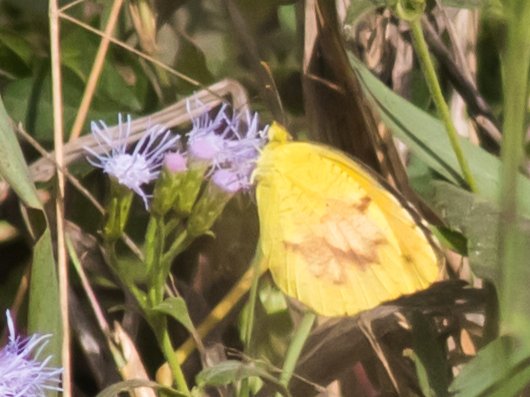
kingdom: Animalia
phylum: Arthropoda
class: Insecta
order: Lepidoptera
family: Pieridae
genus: Abaeis
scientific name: Abaeis nicippe
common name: Sleepy Orange
